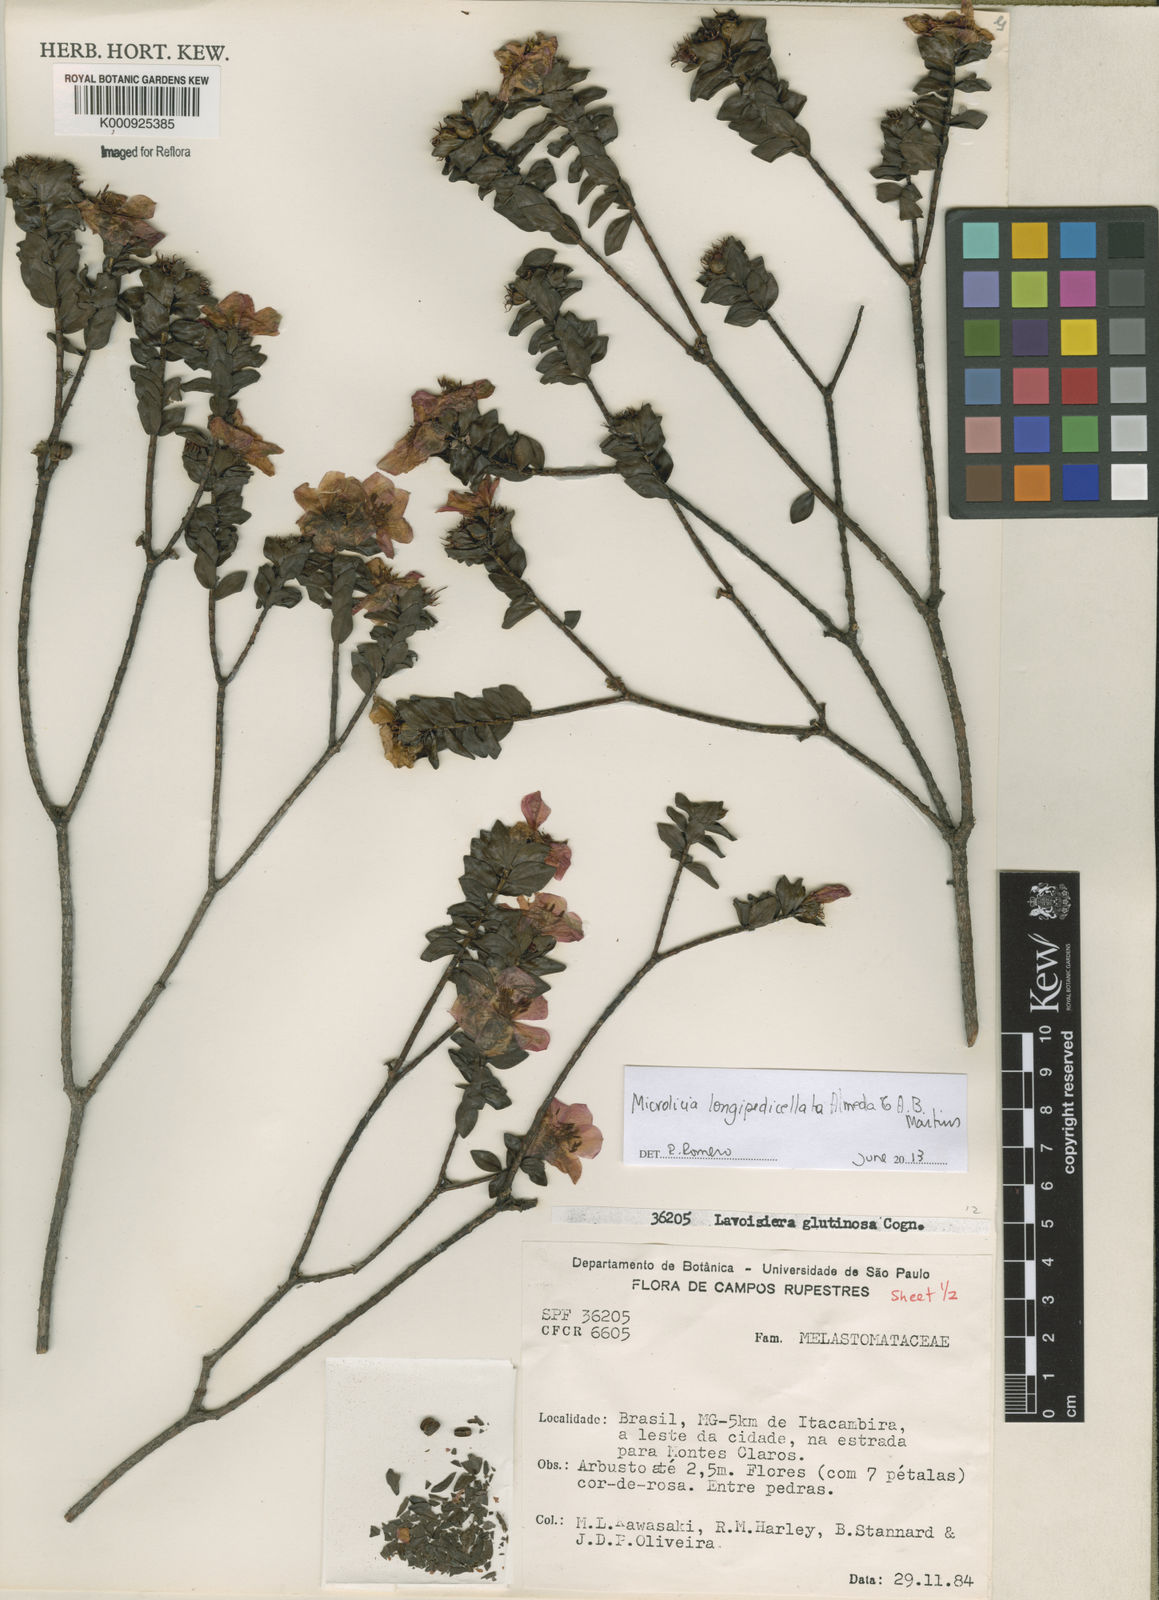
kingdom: Plantae
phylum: Tracheophyta
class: Magnoliopsida
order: Myrtales
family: Melastomataceae
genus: Microlicia
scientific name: Microlicia longipedicellata
